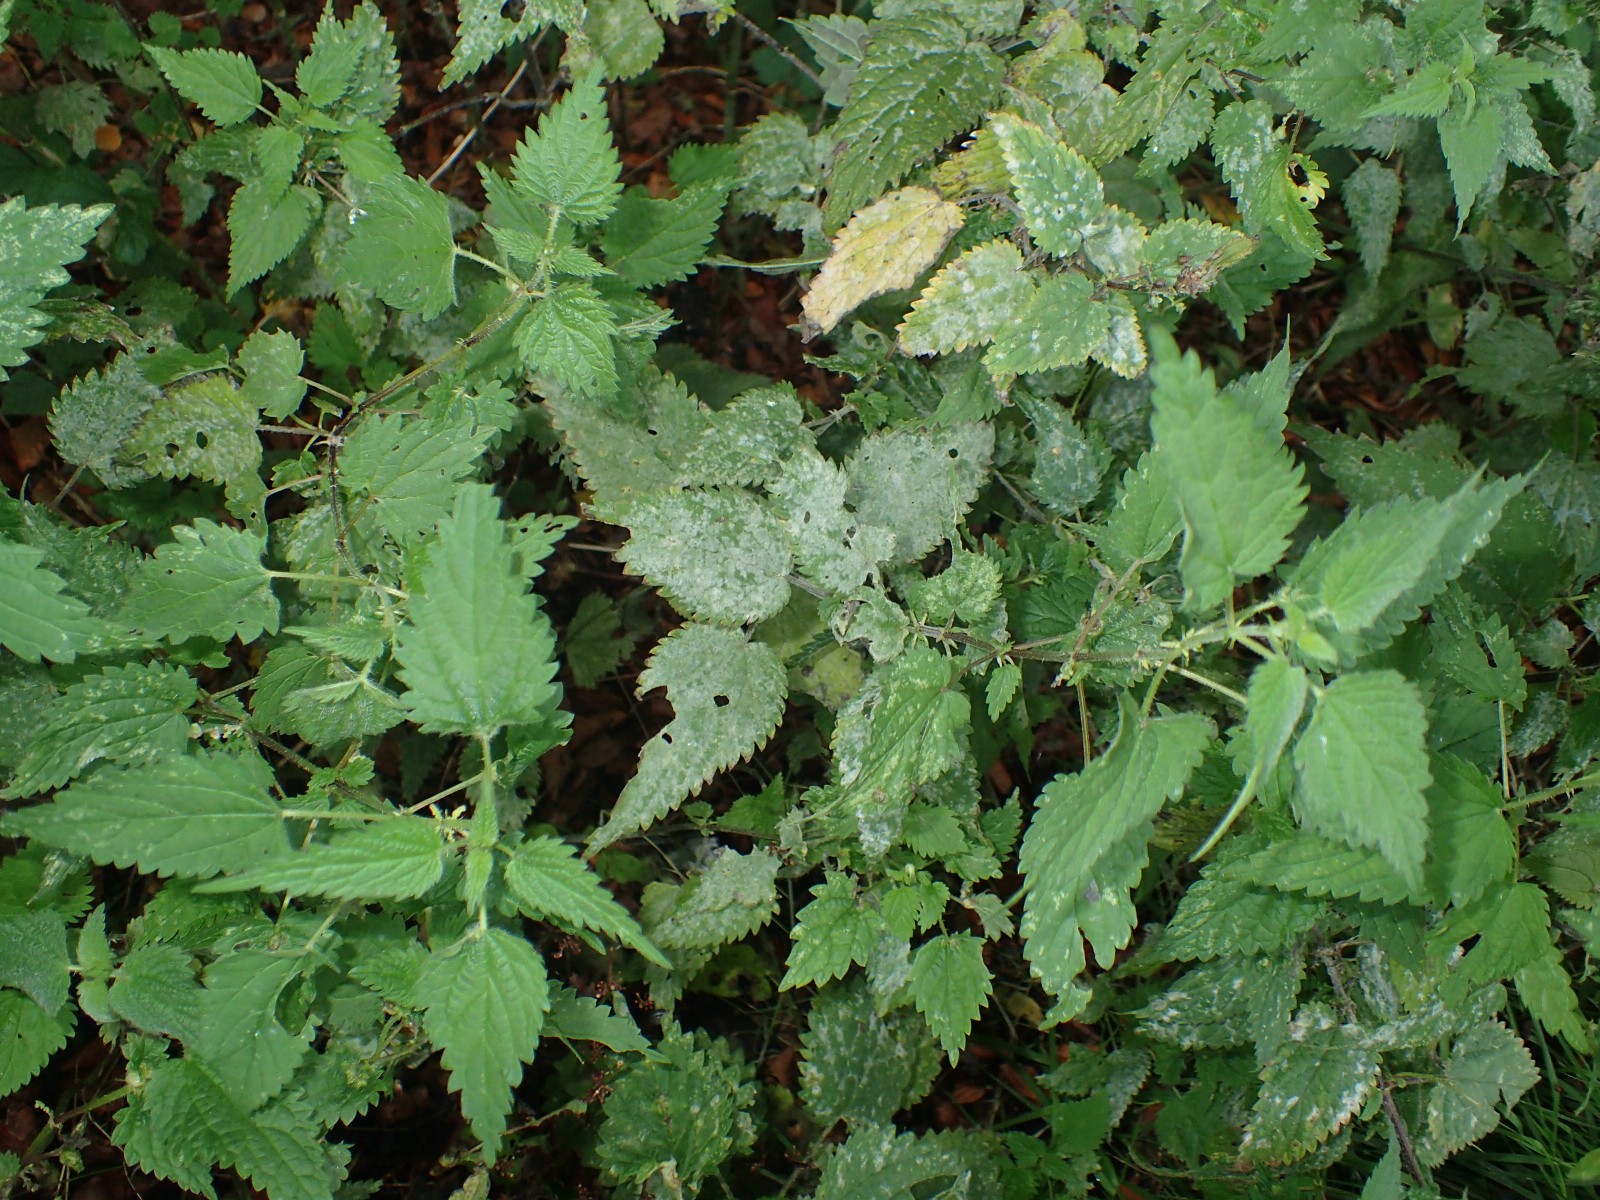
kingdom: Fungi
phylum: Ascomycota
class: Leotiomycetes
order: Helotiales
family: Erysiphaceae
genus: Erysiphe
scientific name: Erysiphe urticae
